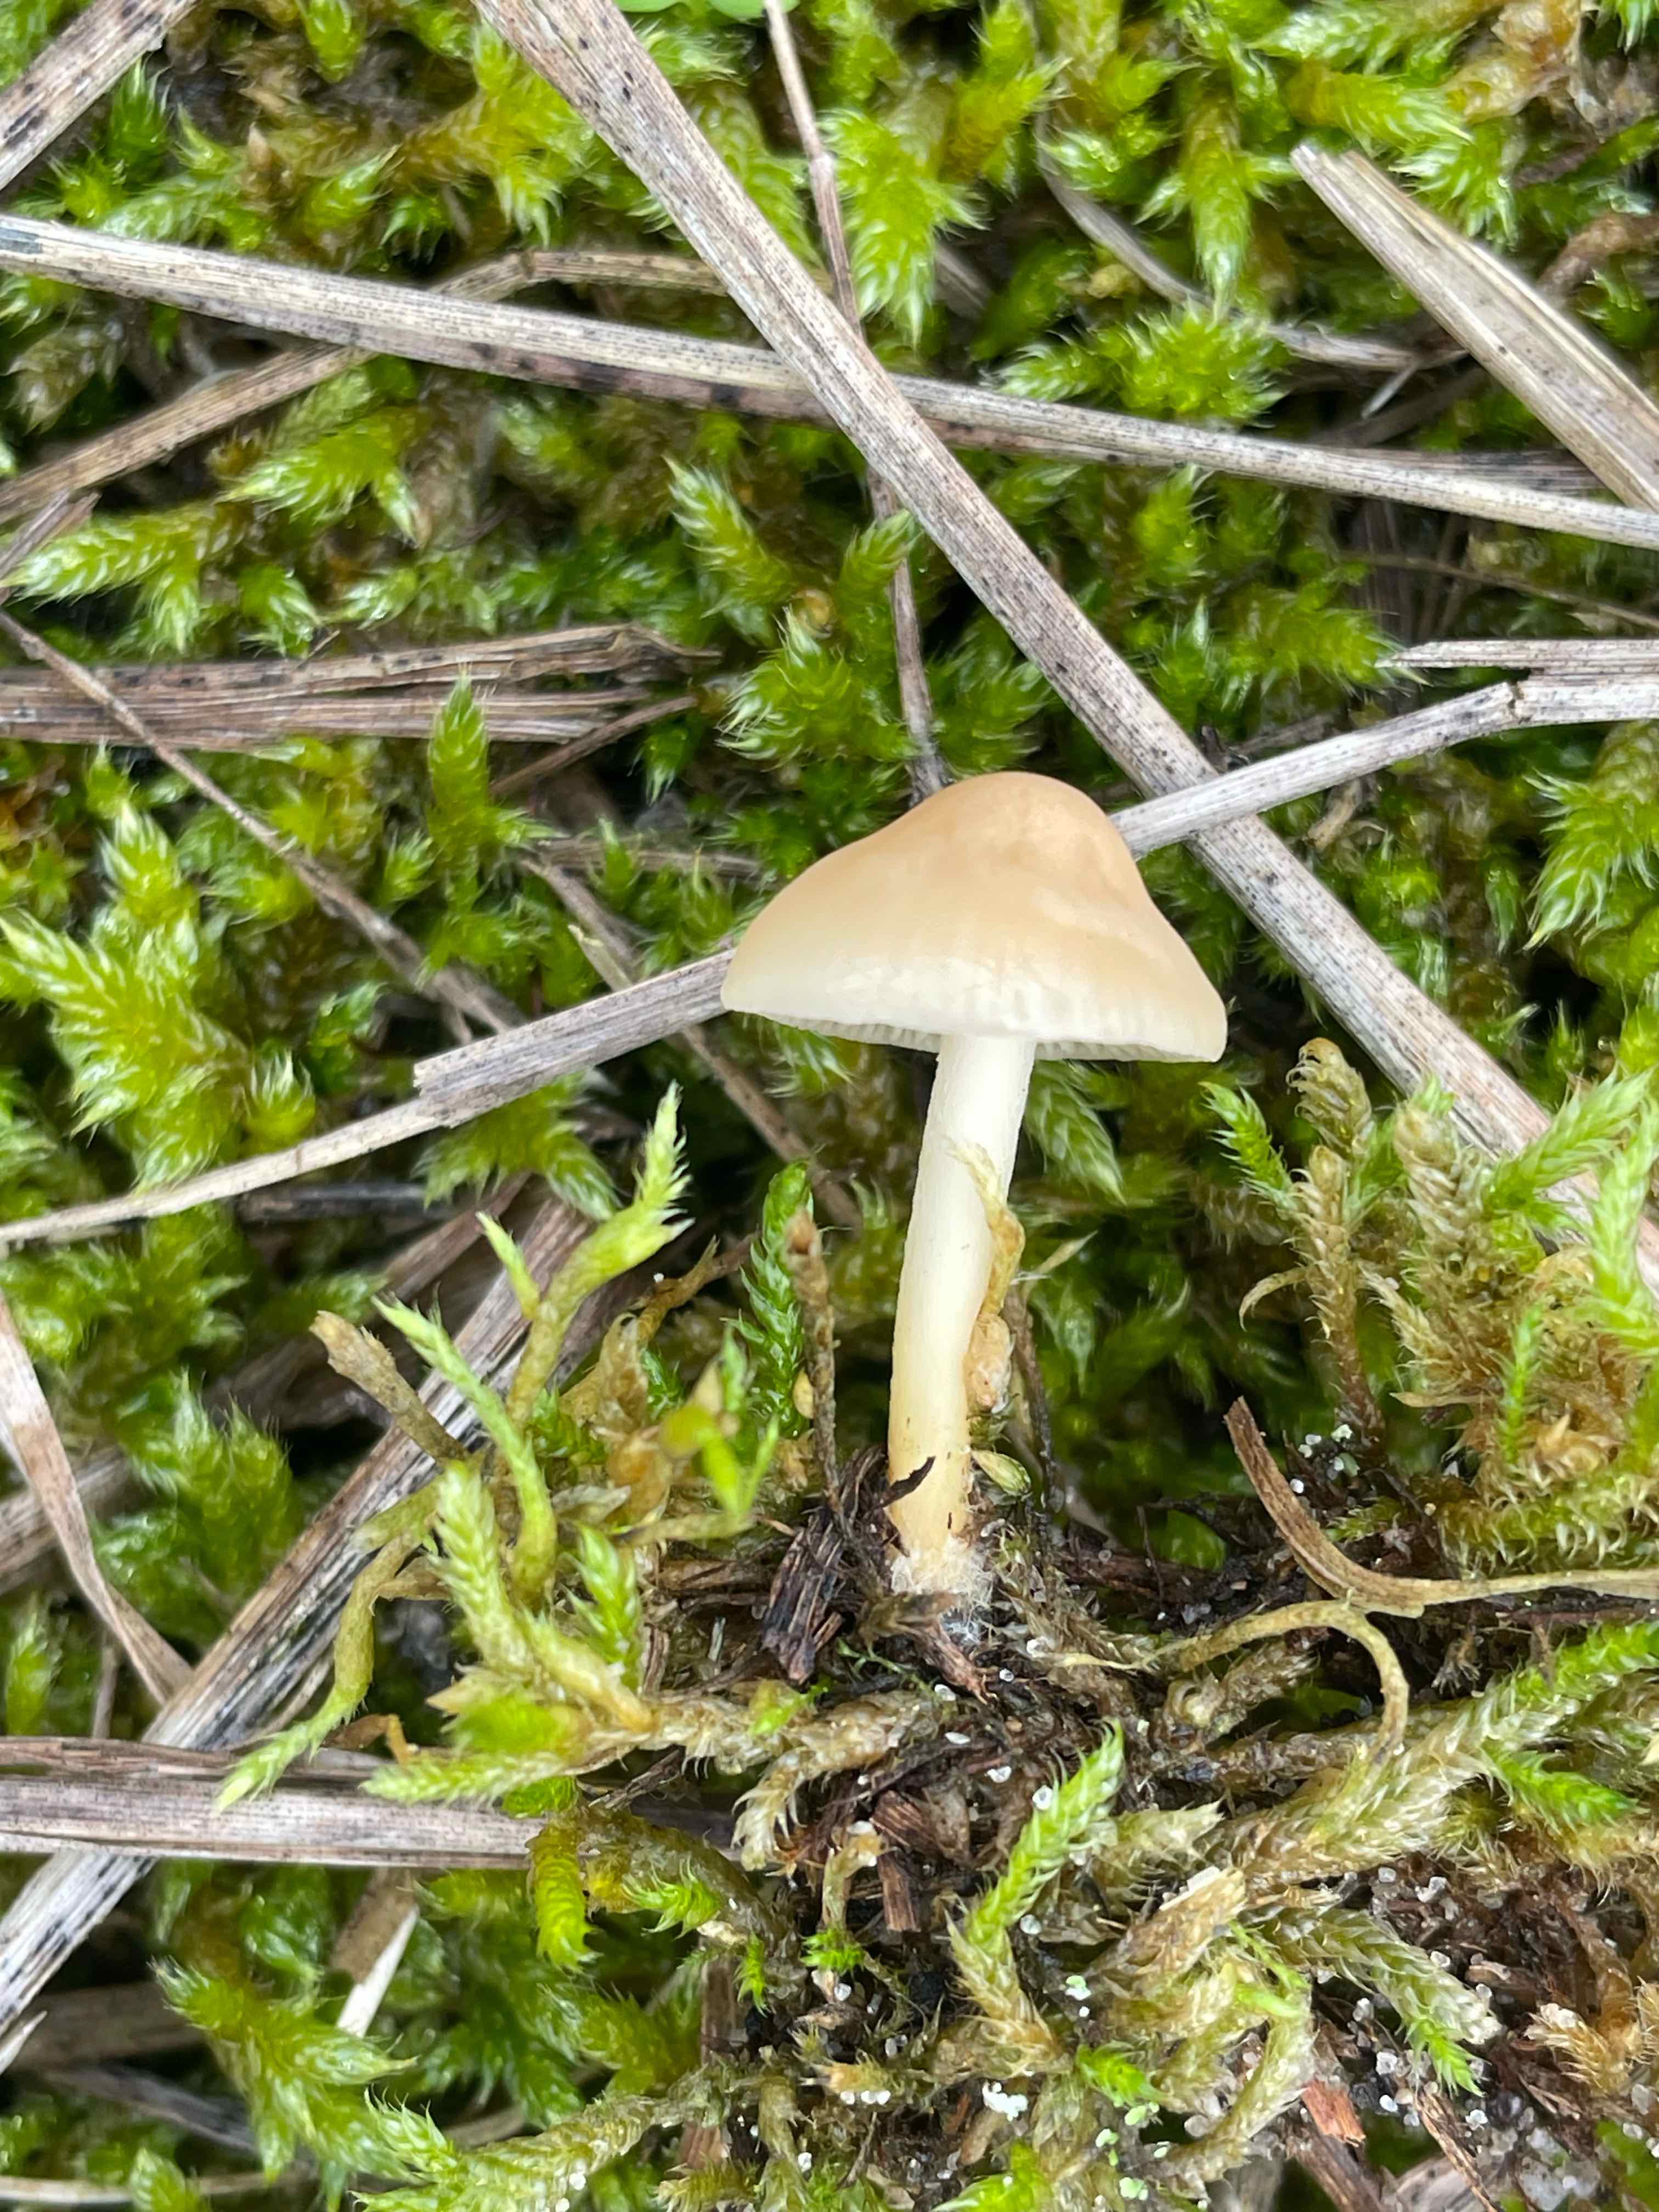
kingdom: Fungi
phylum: Basidiomycota
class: Agaricomycetes
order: Agaricales
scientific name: Agaricales
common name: champignonordenen
